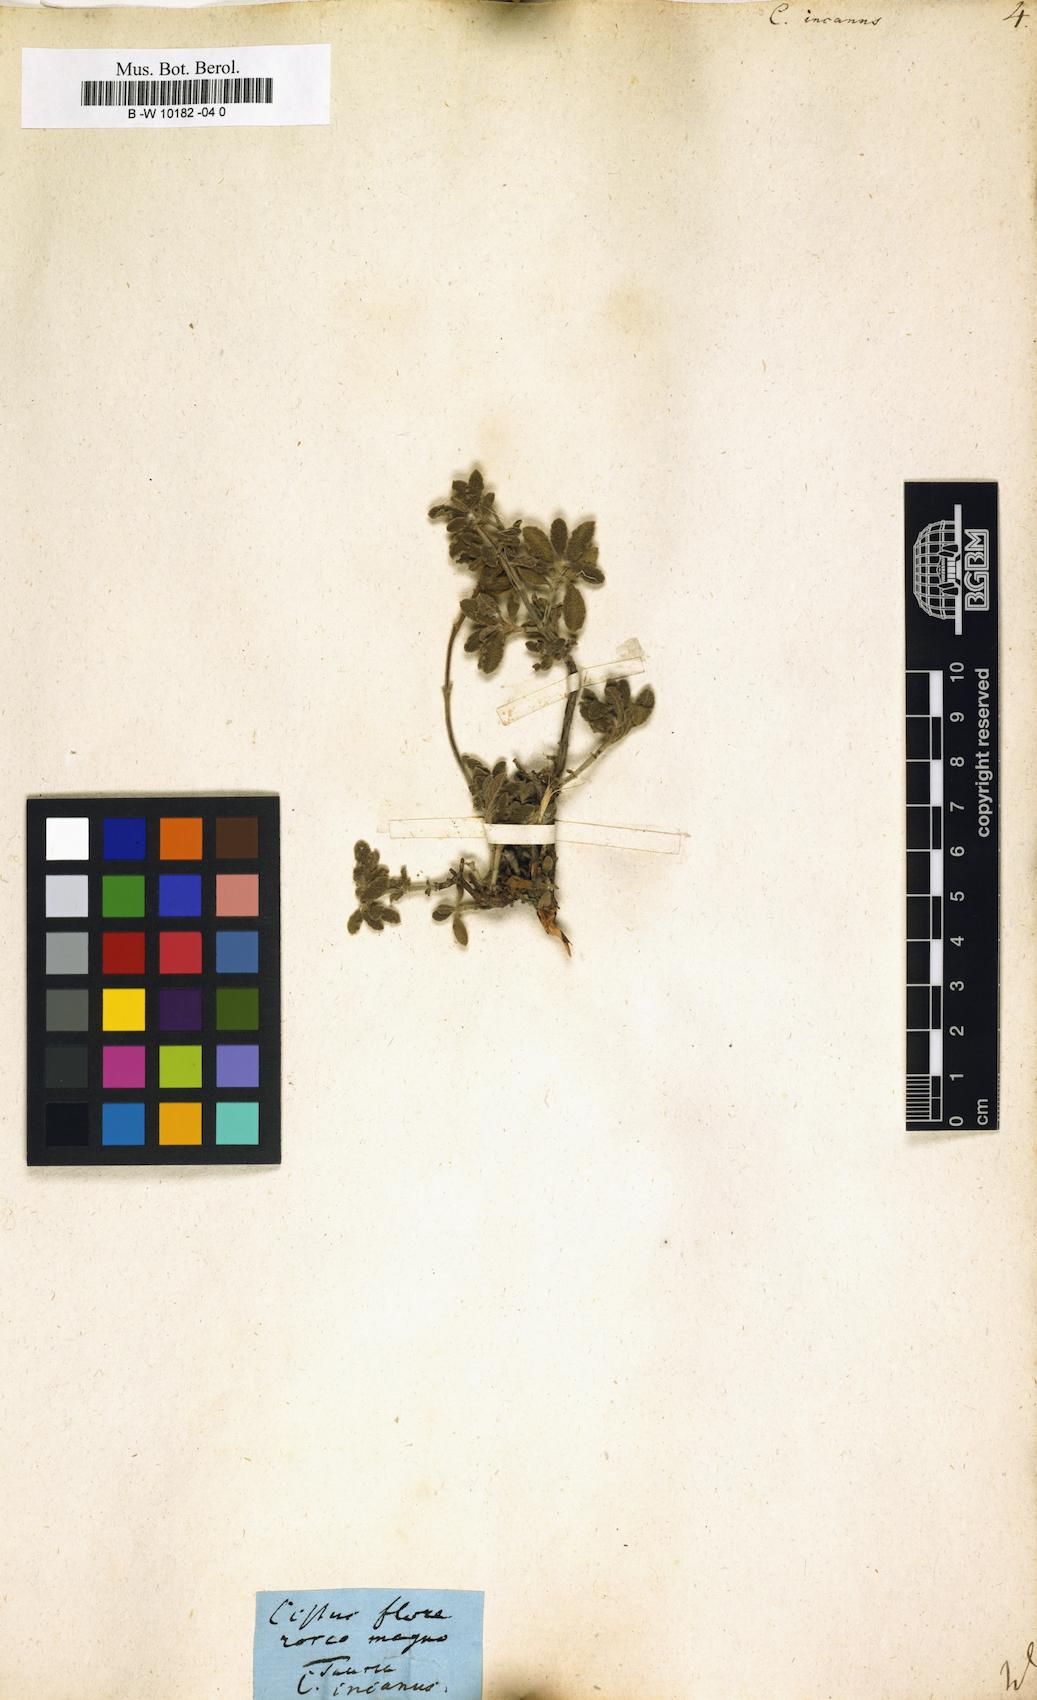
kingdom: Plantae
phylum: Tracheophyta
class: Magnoliopsida
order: Malvales
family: Cistaceae
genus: Cistus
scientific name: Cistus incanus
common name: Hairy rockrose
